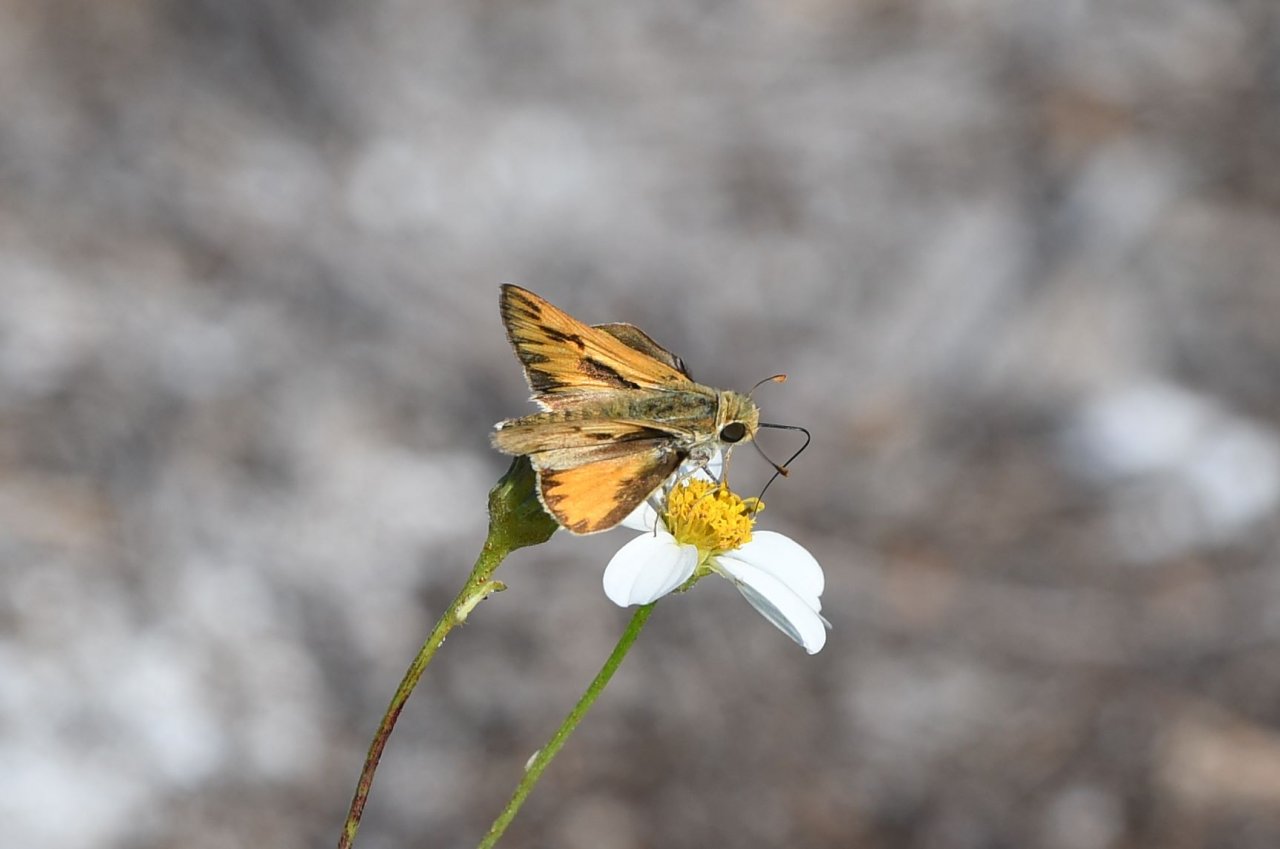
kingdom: Animalia
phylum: Arthropoda
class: Insecta
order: Lepidoptera
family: Hesperiidae
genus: Hylephila
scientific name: Hylephila phyleus
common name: Fiery Skipper
